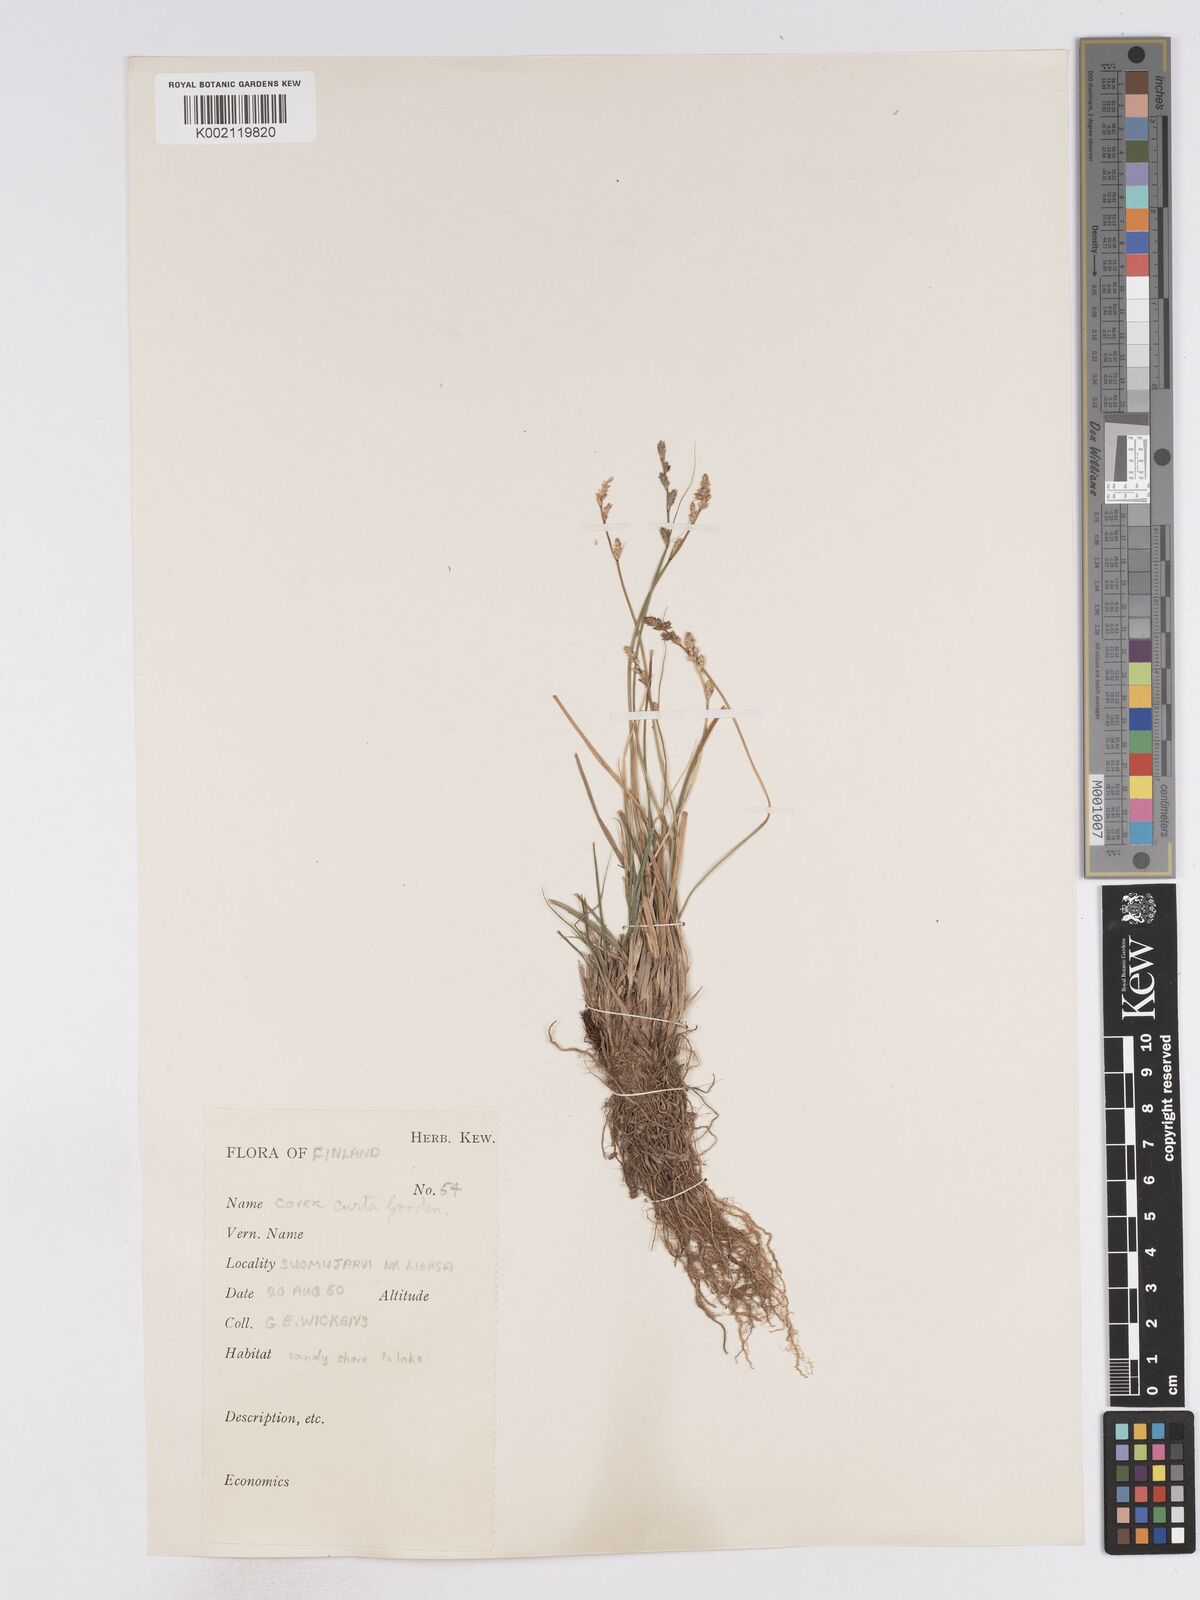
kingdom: Plantae
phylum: Tracheophyta
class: Liliopsida
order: Poales
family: Cyperaceae
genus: Carex
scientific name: Carex curta
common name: White sedge
